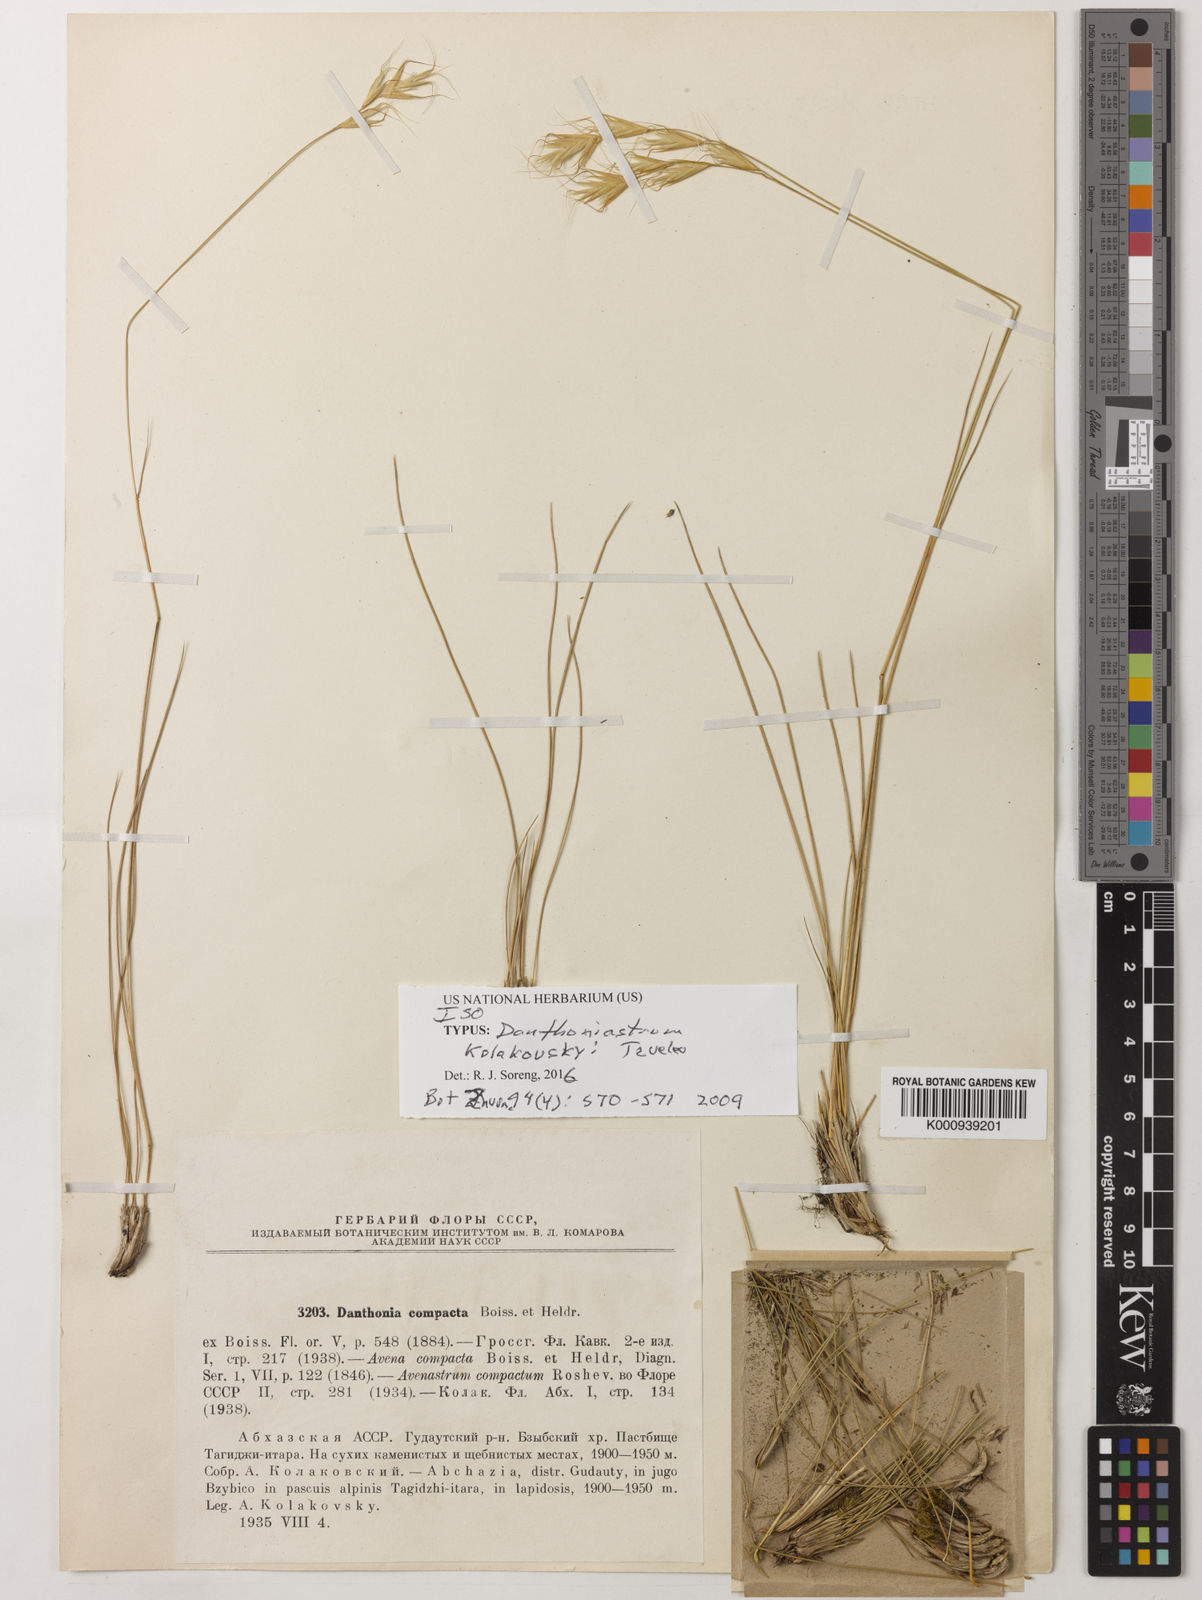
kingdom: Plantae
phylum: Tracheophyta
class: Liliopsida
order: Poales
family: Poaceae
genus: Danthoniastrum
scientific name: Danthoniastrum kolakovskyi
